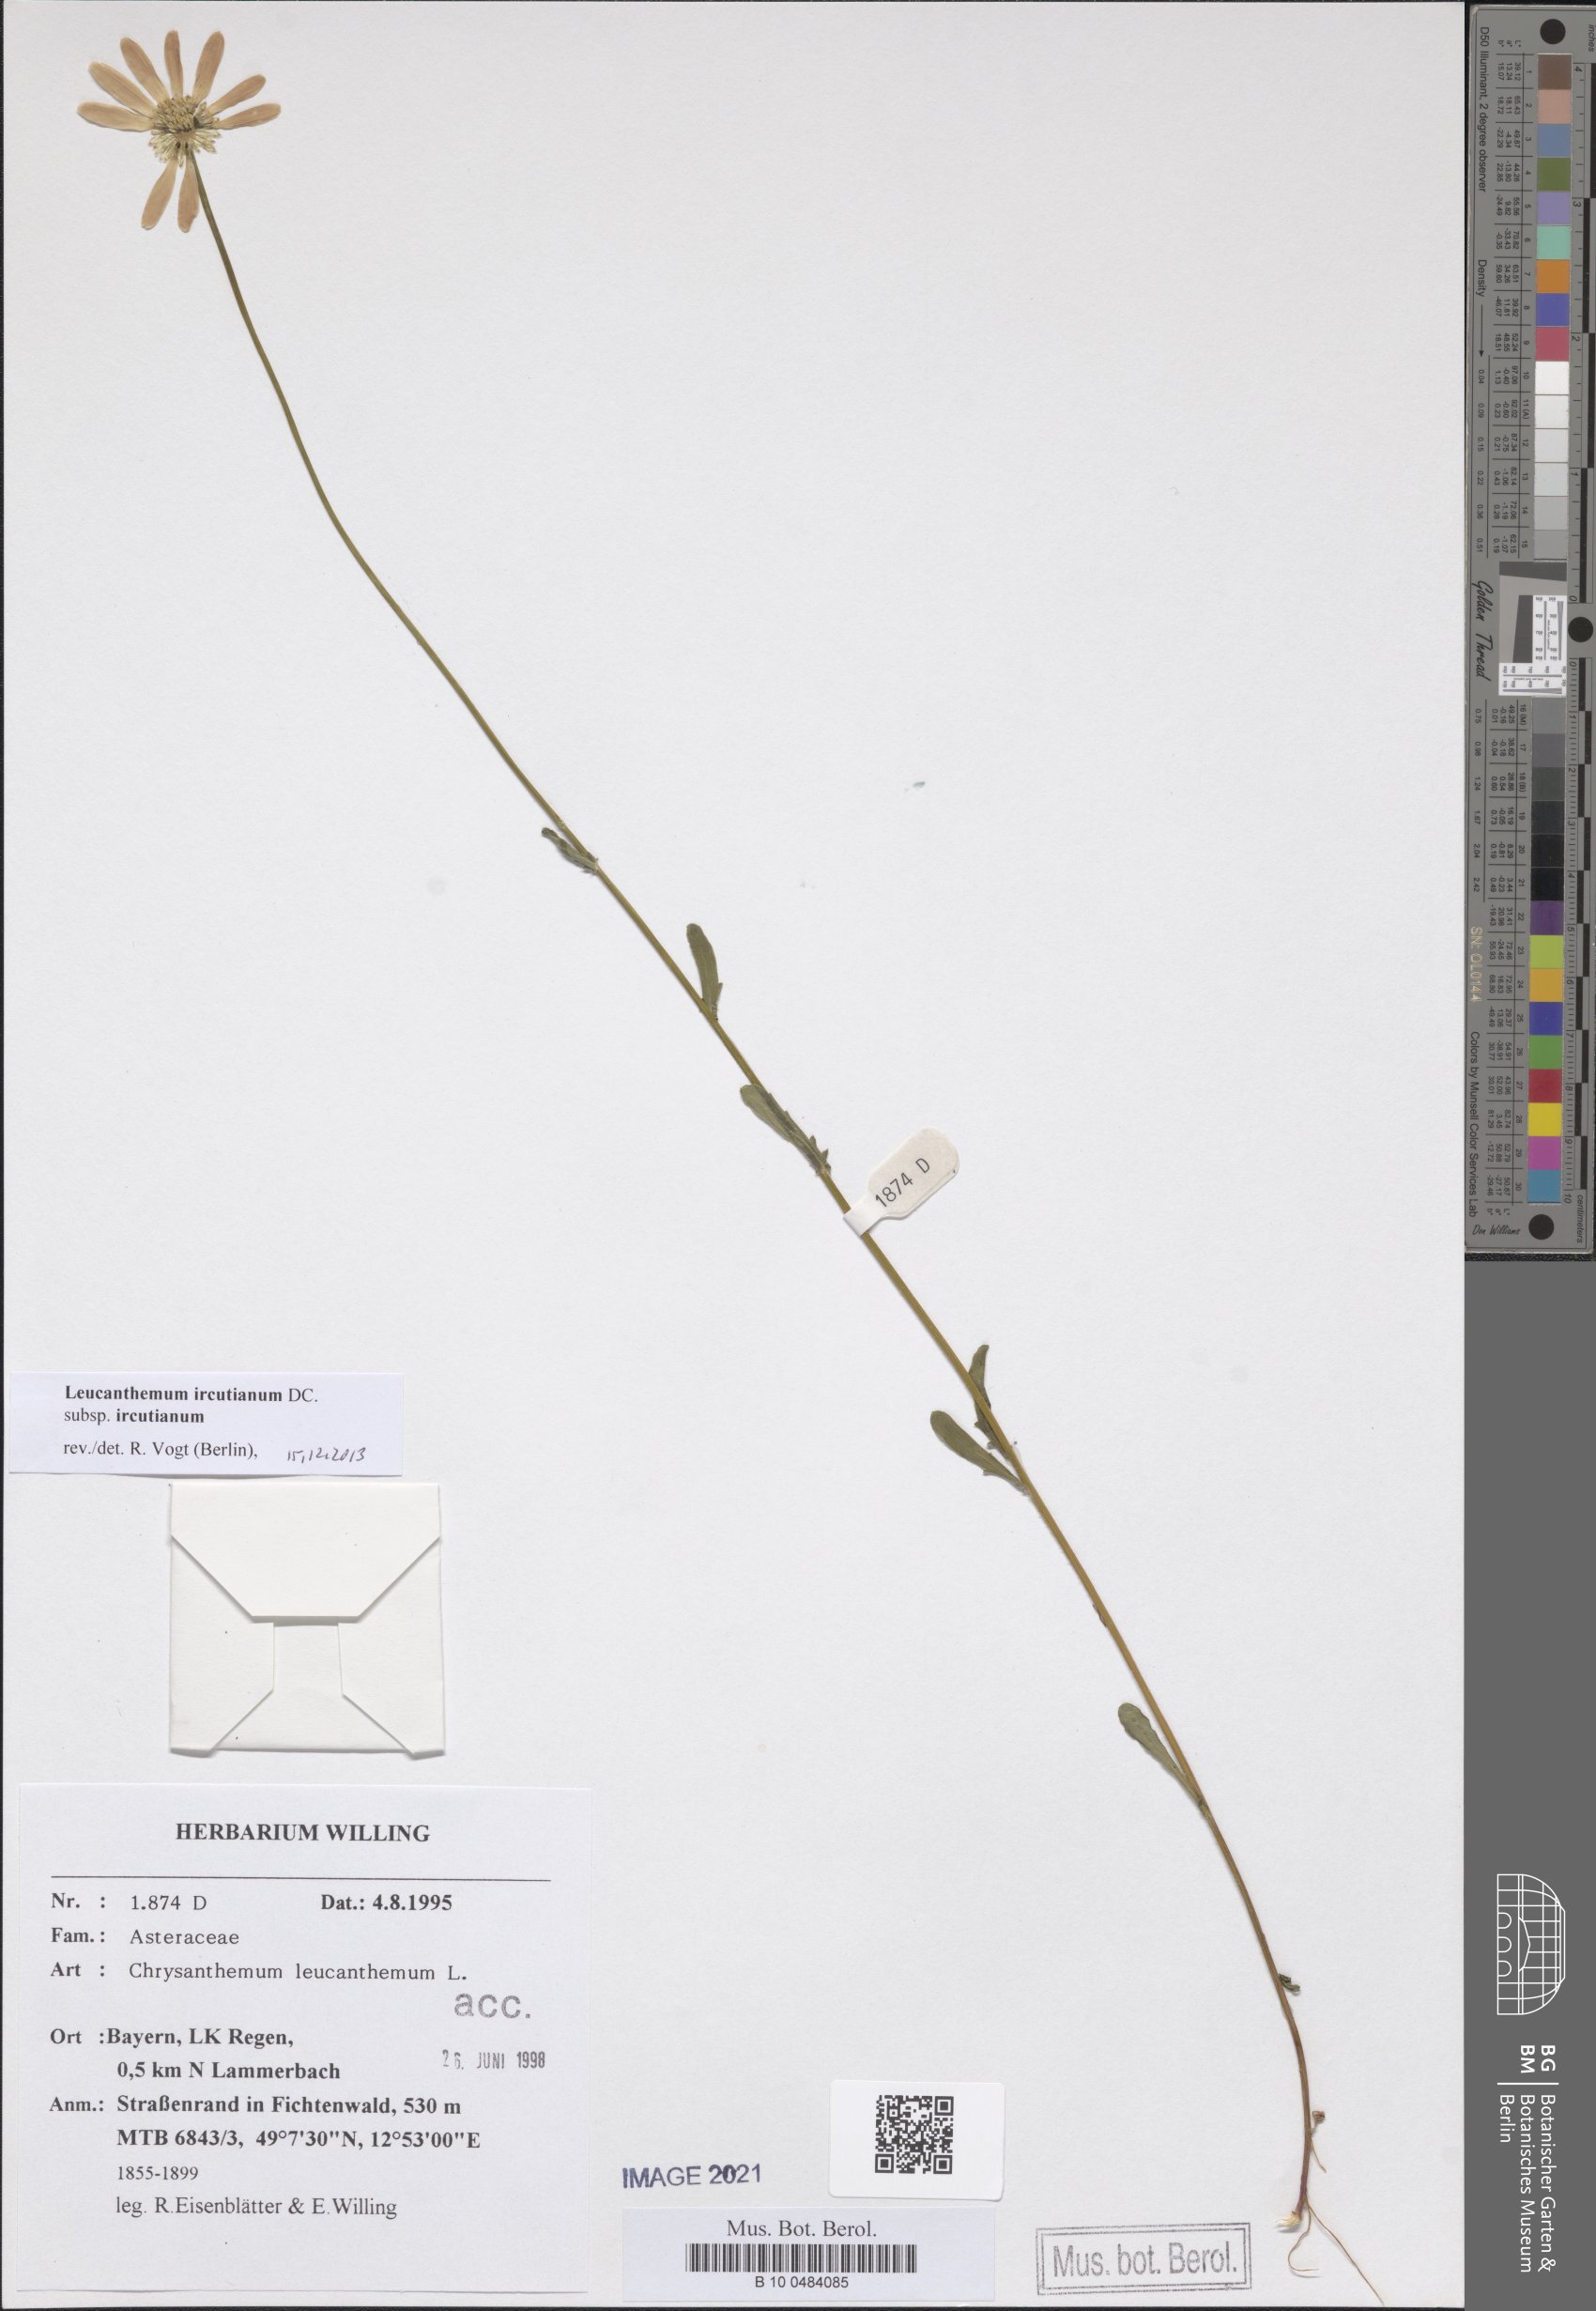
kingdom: Plantae
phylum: Tracheophyta
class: Magnoliopsida
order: Asterales
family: Asteraceae
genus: Leucanthemum
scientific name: Leucanthemum ircutianum
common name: Daisy
